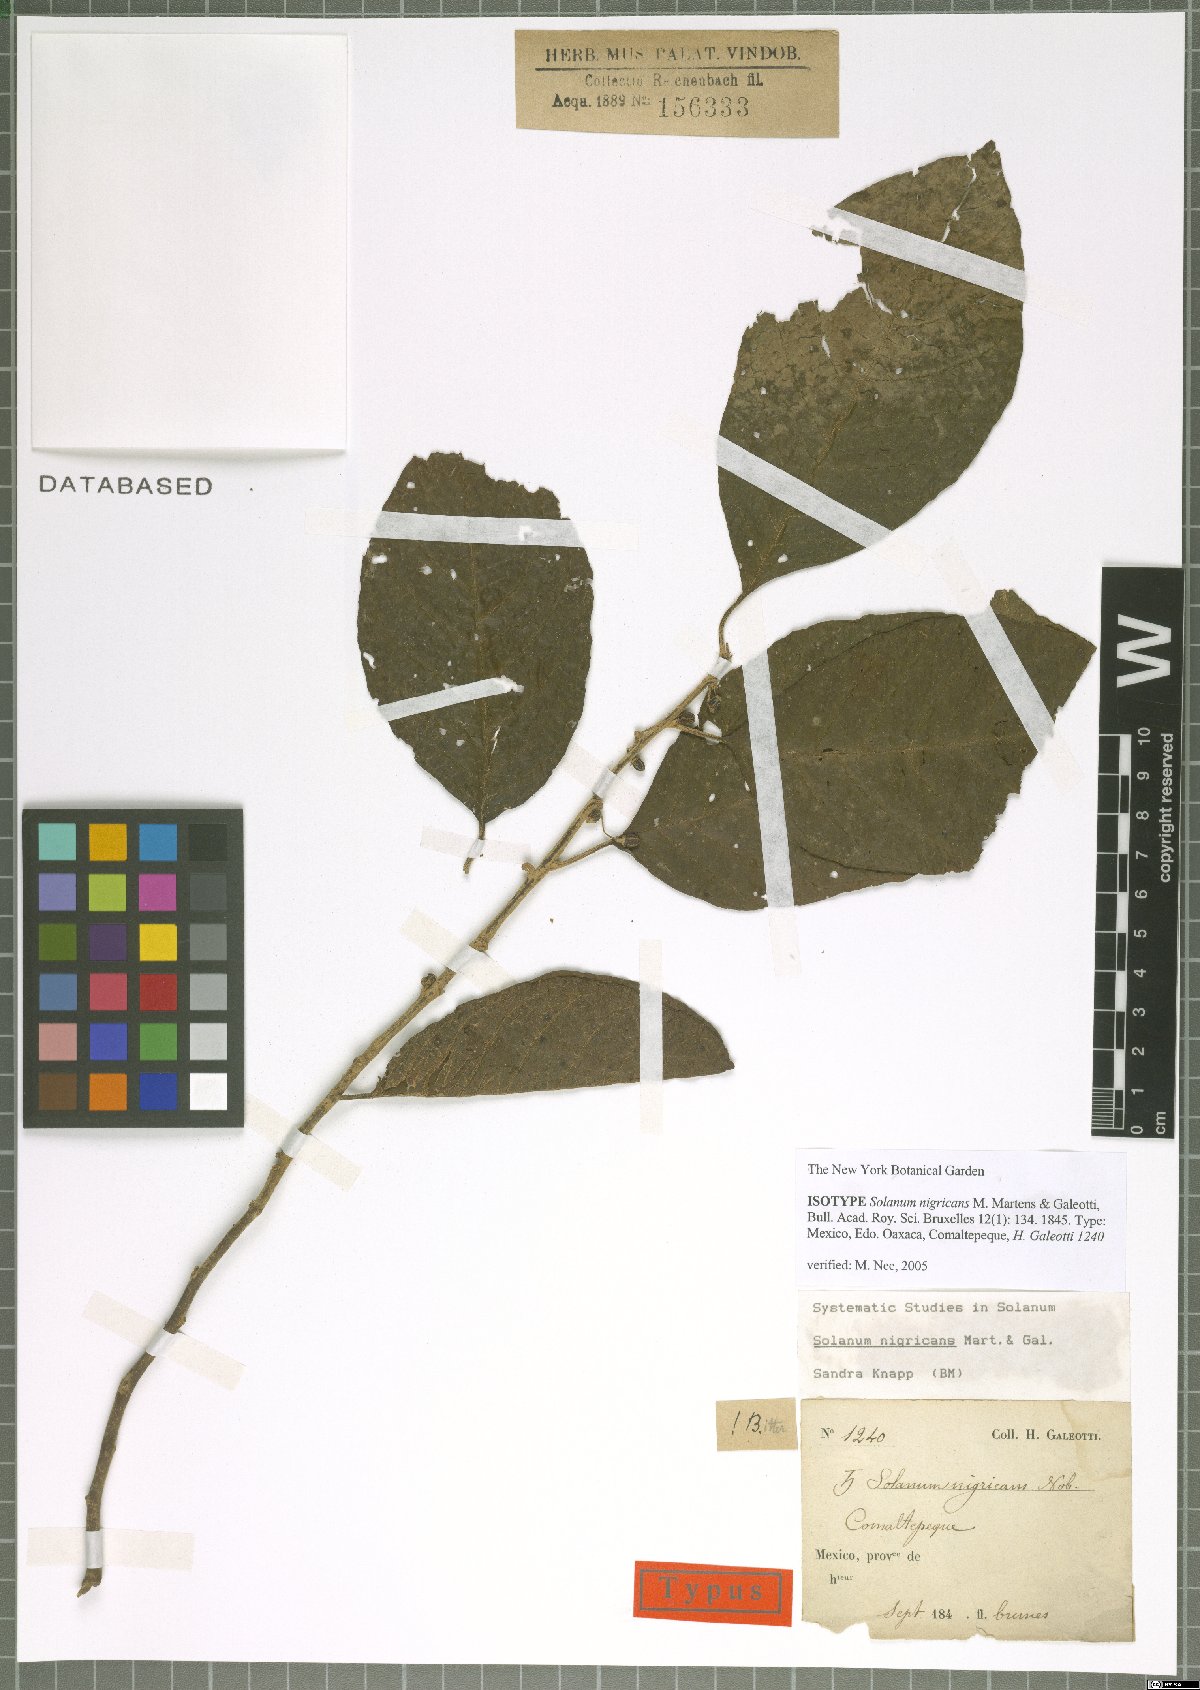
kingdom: Plantae
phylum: Tracheophyta
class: Magnoliopsida
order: Solanales
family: Solanaceae
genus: Solanum
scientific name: Solanum nigricans
